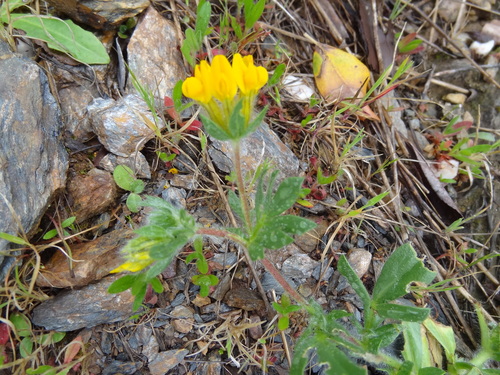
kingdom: Plantae
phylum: Tracheophyta
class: Magnoliopsida
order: Fabales
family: Fabaceae
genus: Anthyllis
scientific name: Anthyllis lotoides
